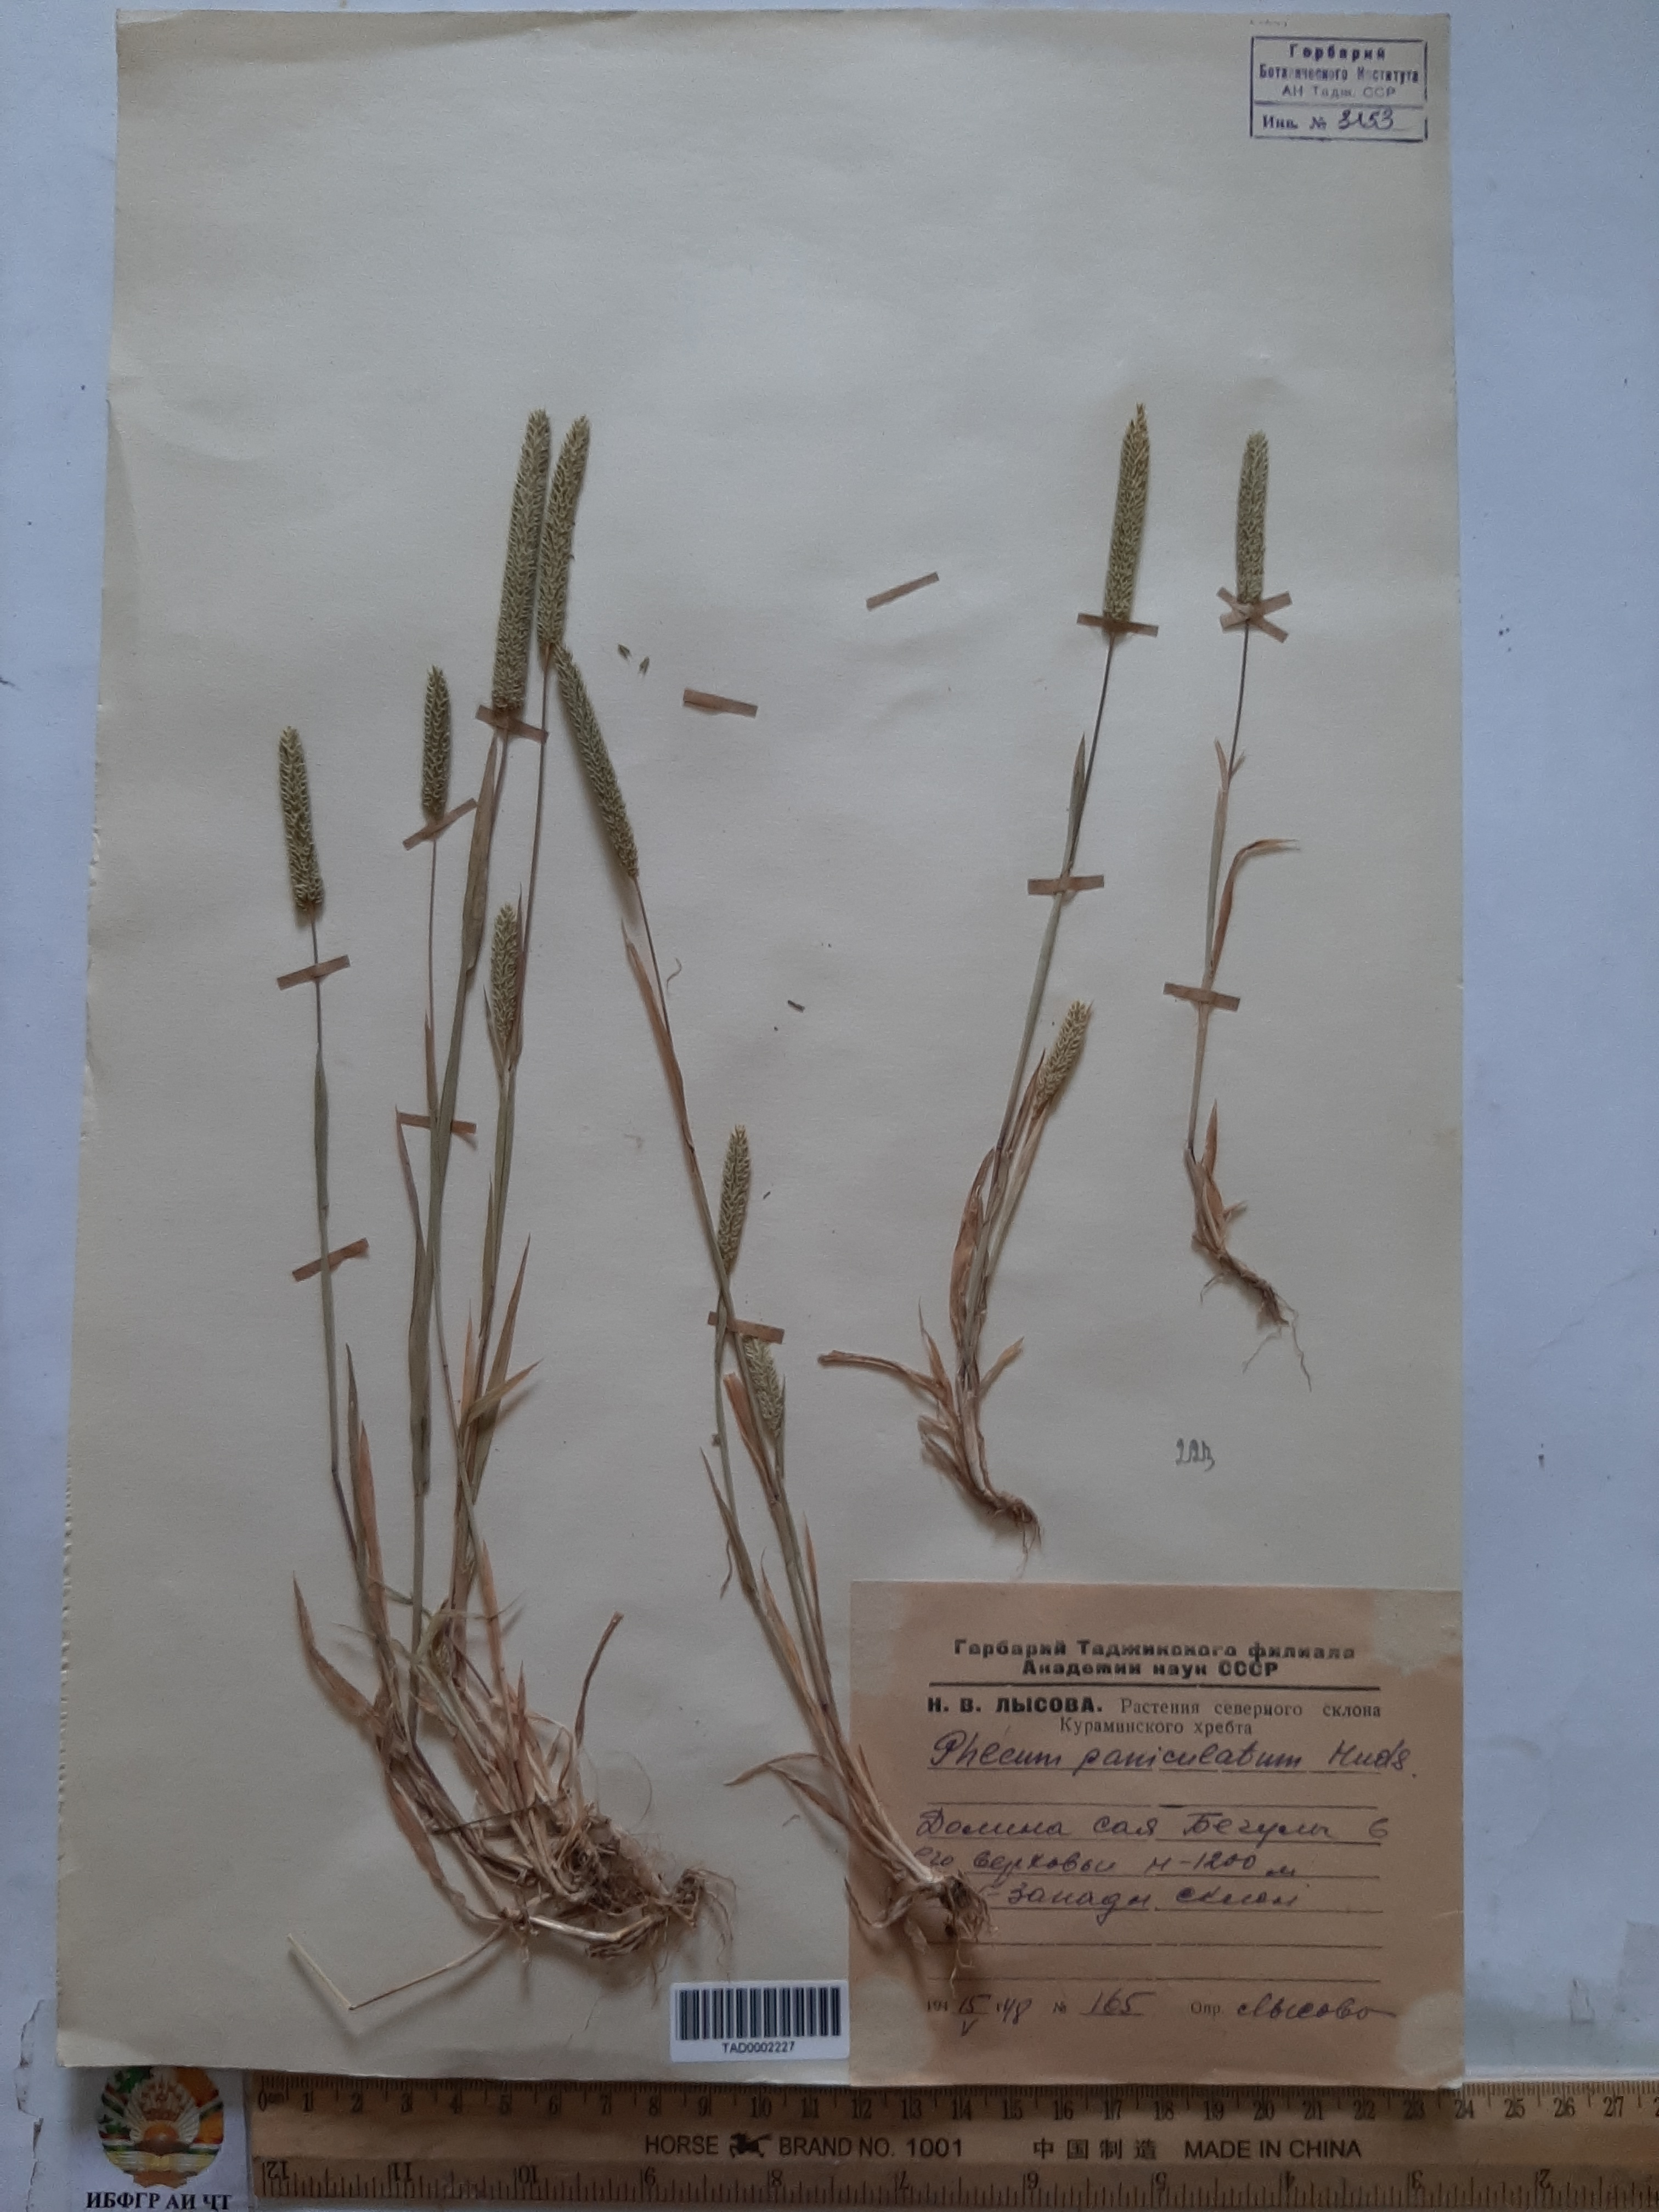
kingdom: Plantae
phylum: Tracheophyta
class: Liliopsida
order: Poales
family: Poaceae
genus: Phleum
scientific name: Phleum paniculatum
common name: British timothy
